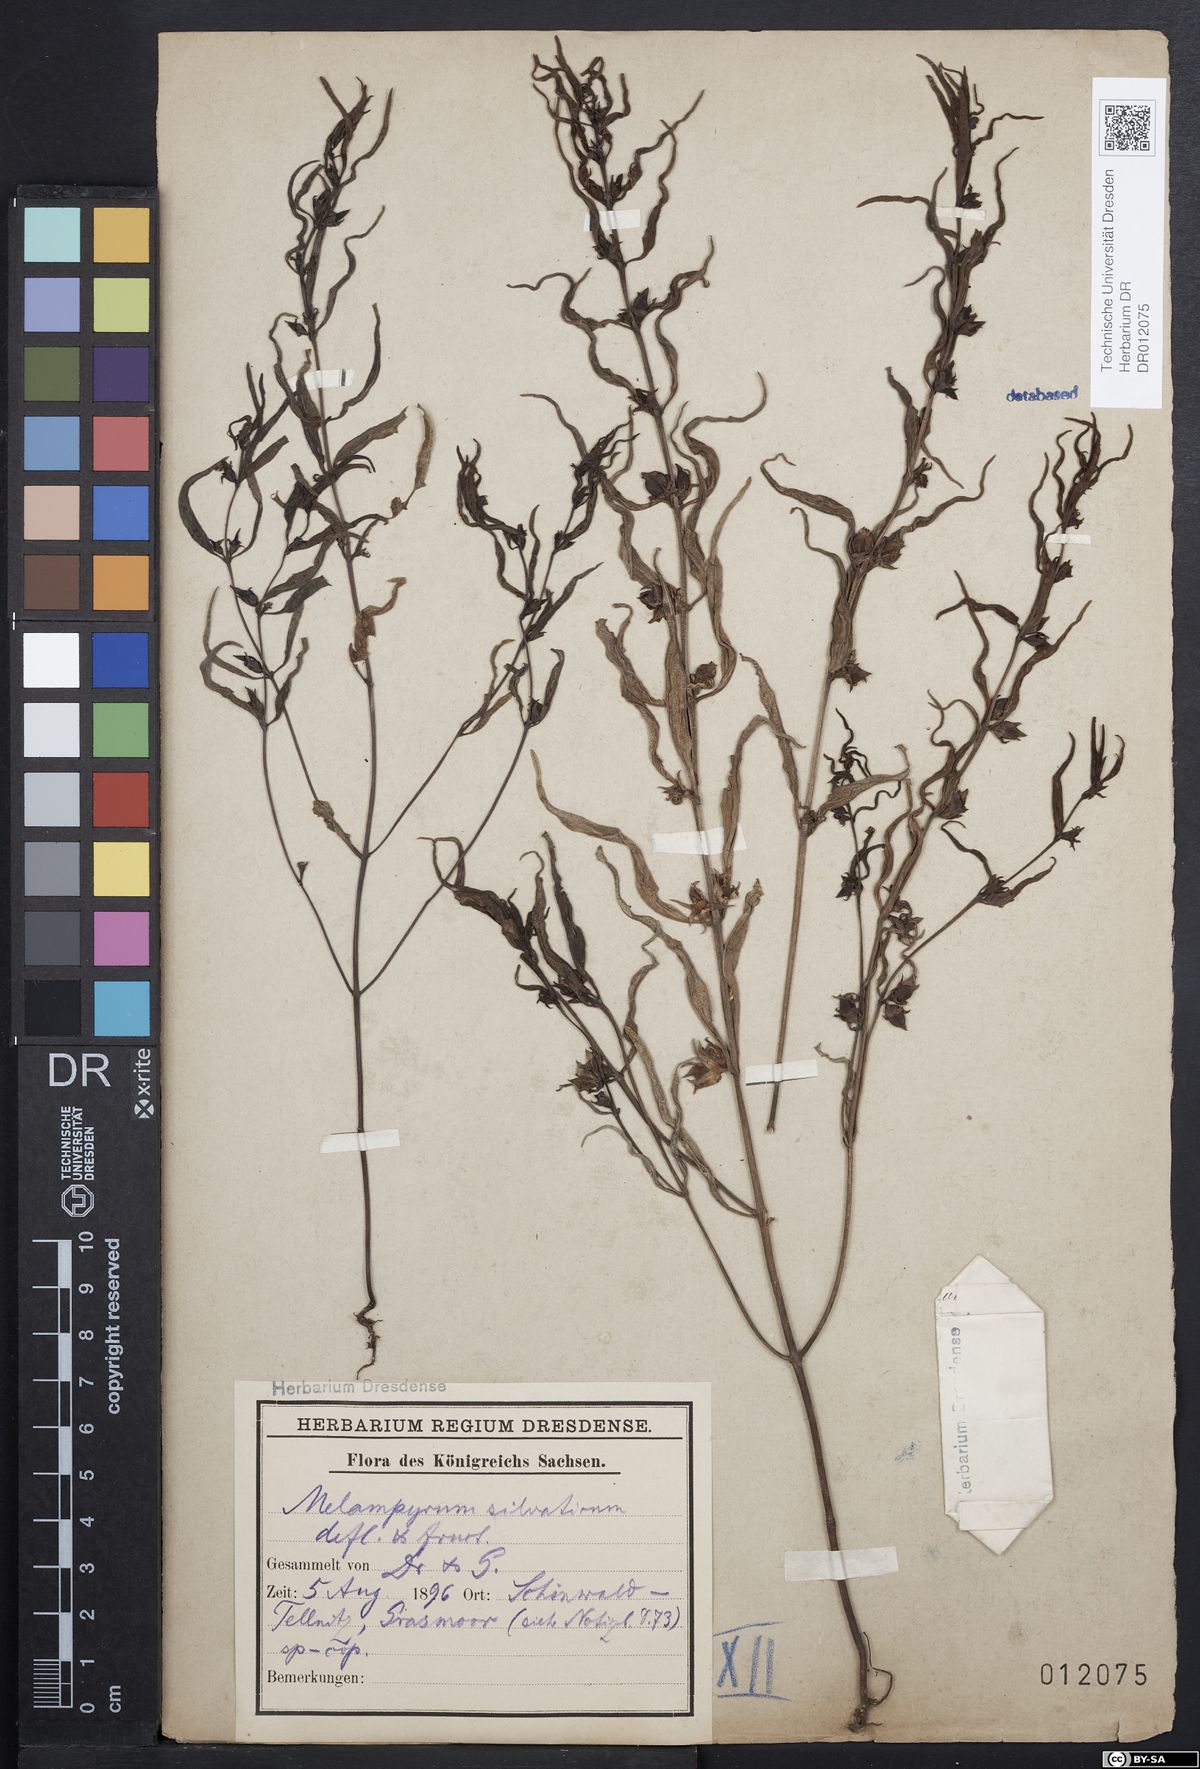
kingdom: Plantae
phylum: Tracheophyta
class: Magnoliopsida
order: Lamiales
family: Orobanchaceae
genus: Melampyrum
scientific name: Melampyrum sylvaticum
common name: Small cow-wheat
